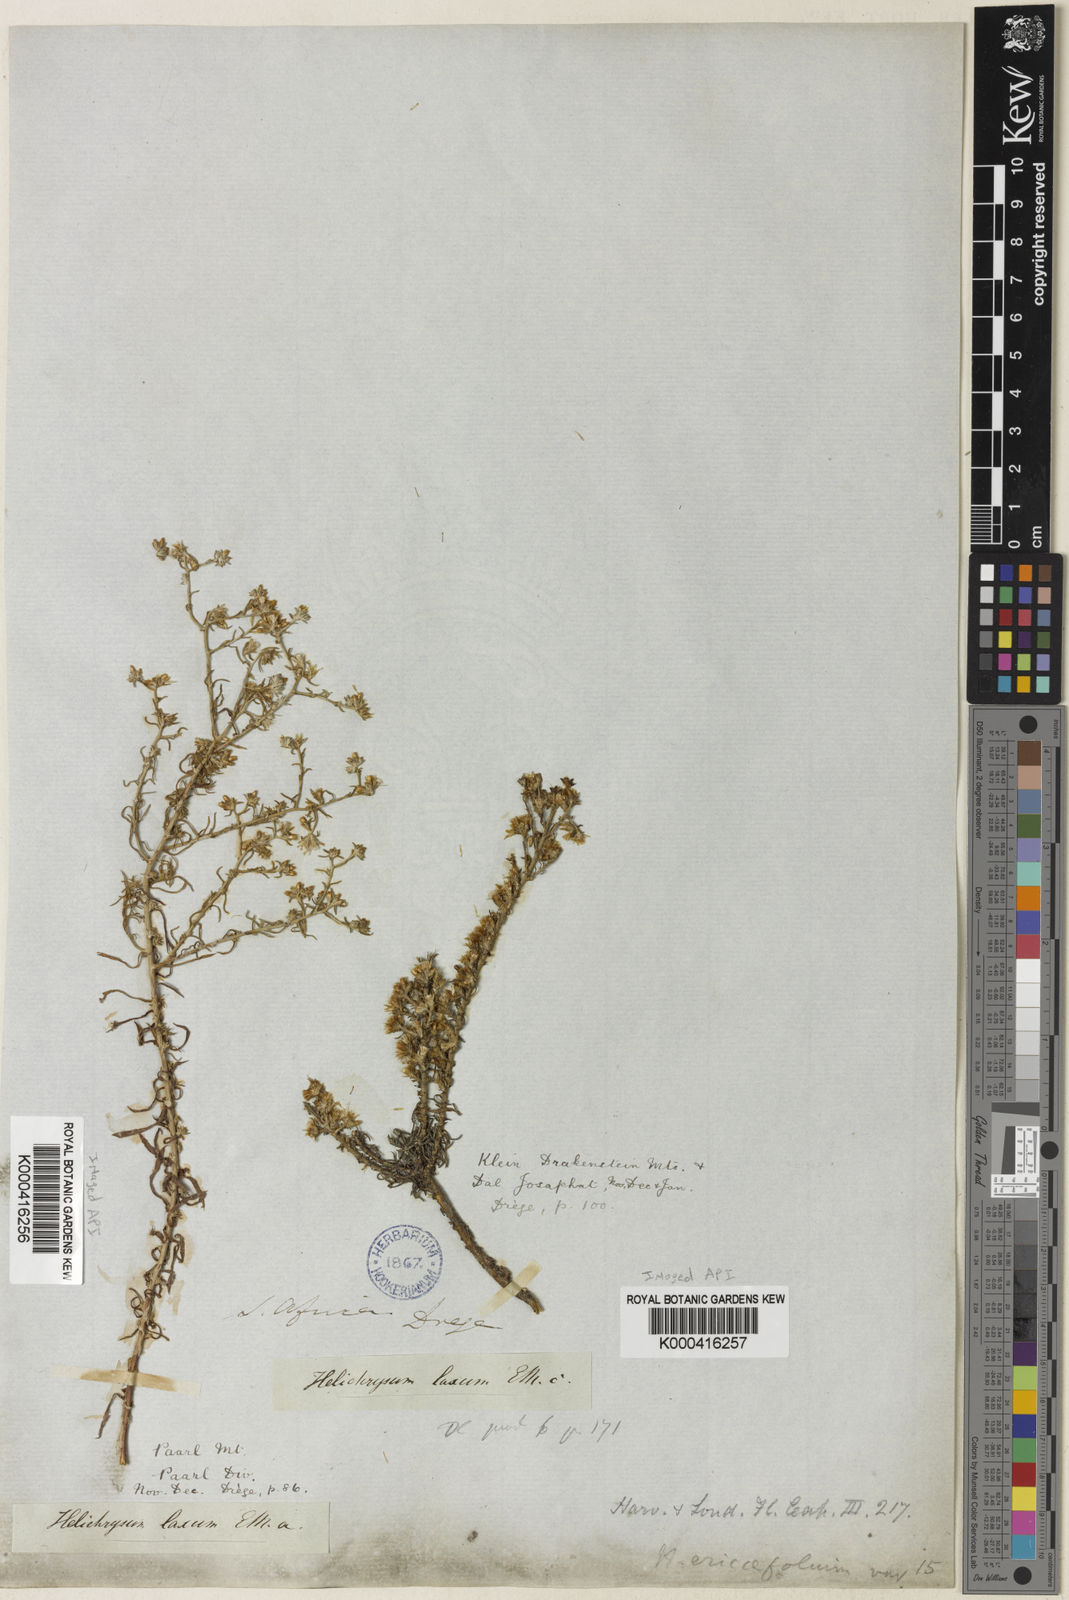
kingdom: Plantae
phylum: Tracheophyta
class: Magnoliopsida
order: Asterales
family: Asteraceae
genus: Helichrysum
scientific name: Helichrysum asperum
